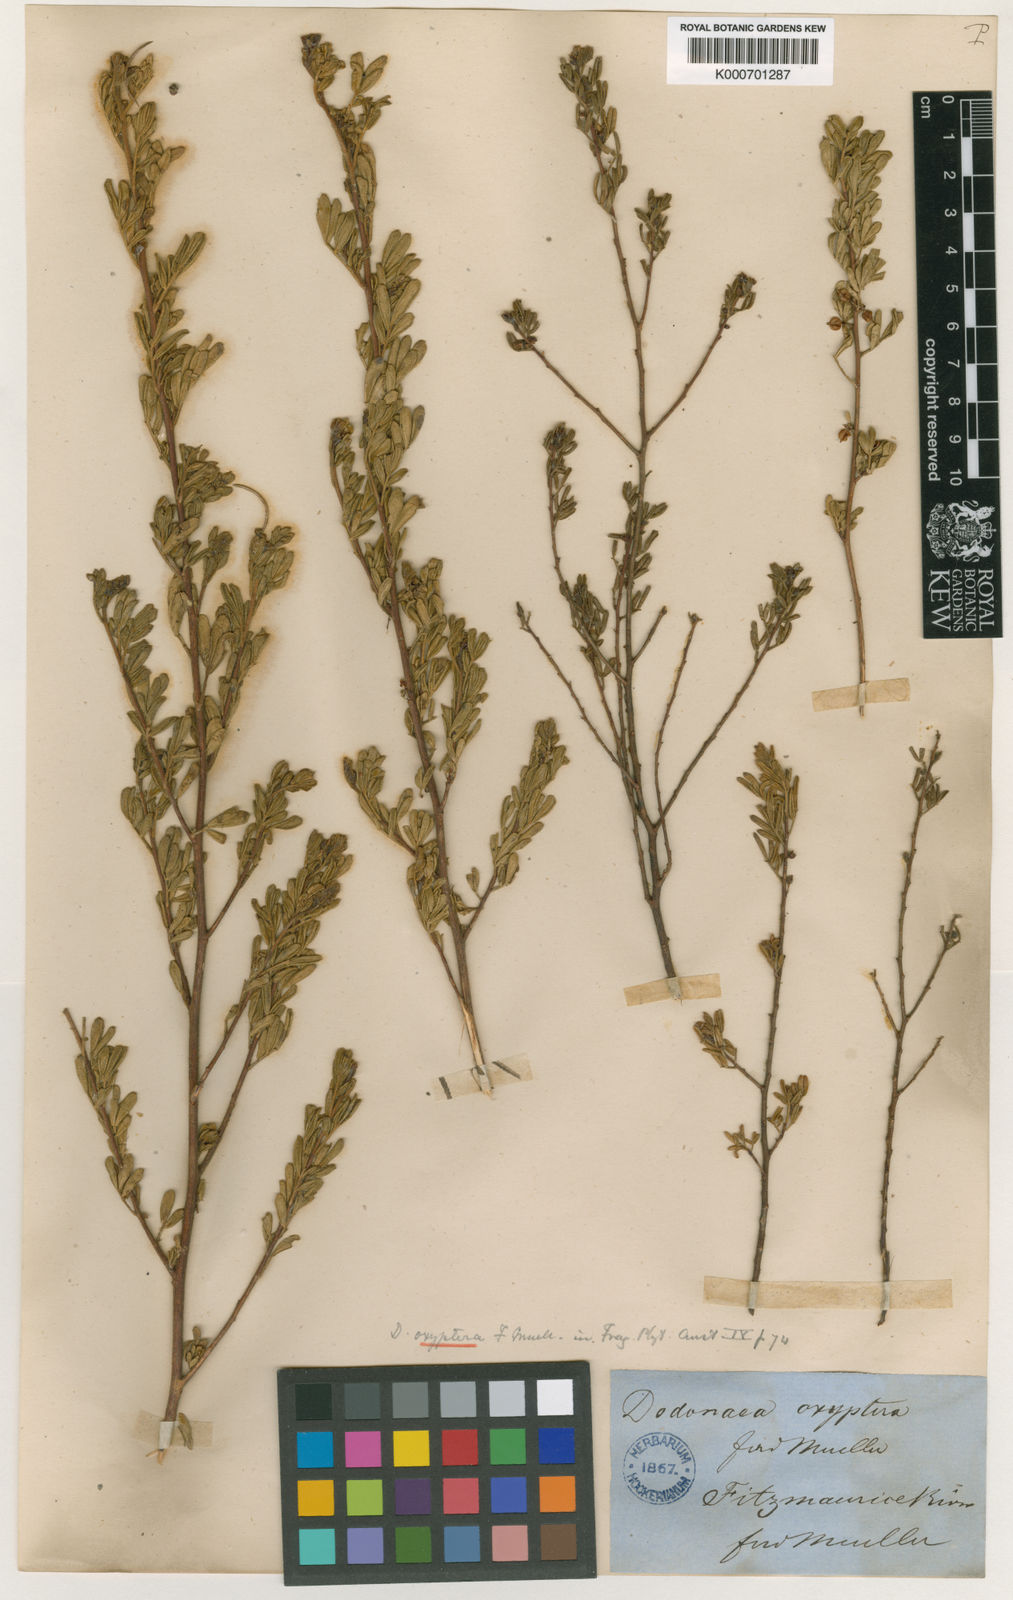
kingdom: Plantae
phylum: Tracheophyta
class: Magnoliopsida
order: Sapindales
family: Sapindaceae
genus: Dodonaea
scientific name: Dodonaea oxyptera
